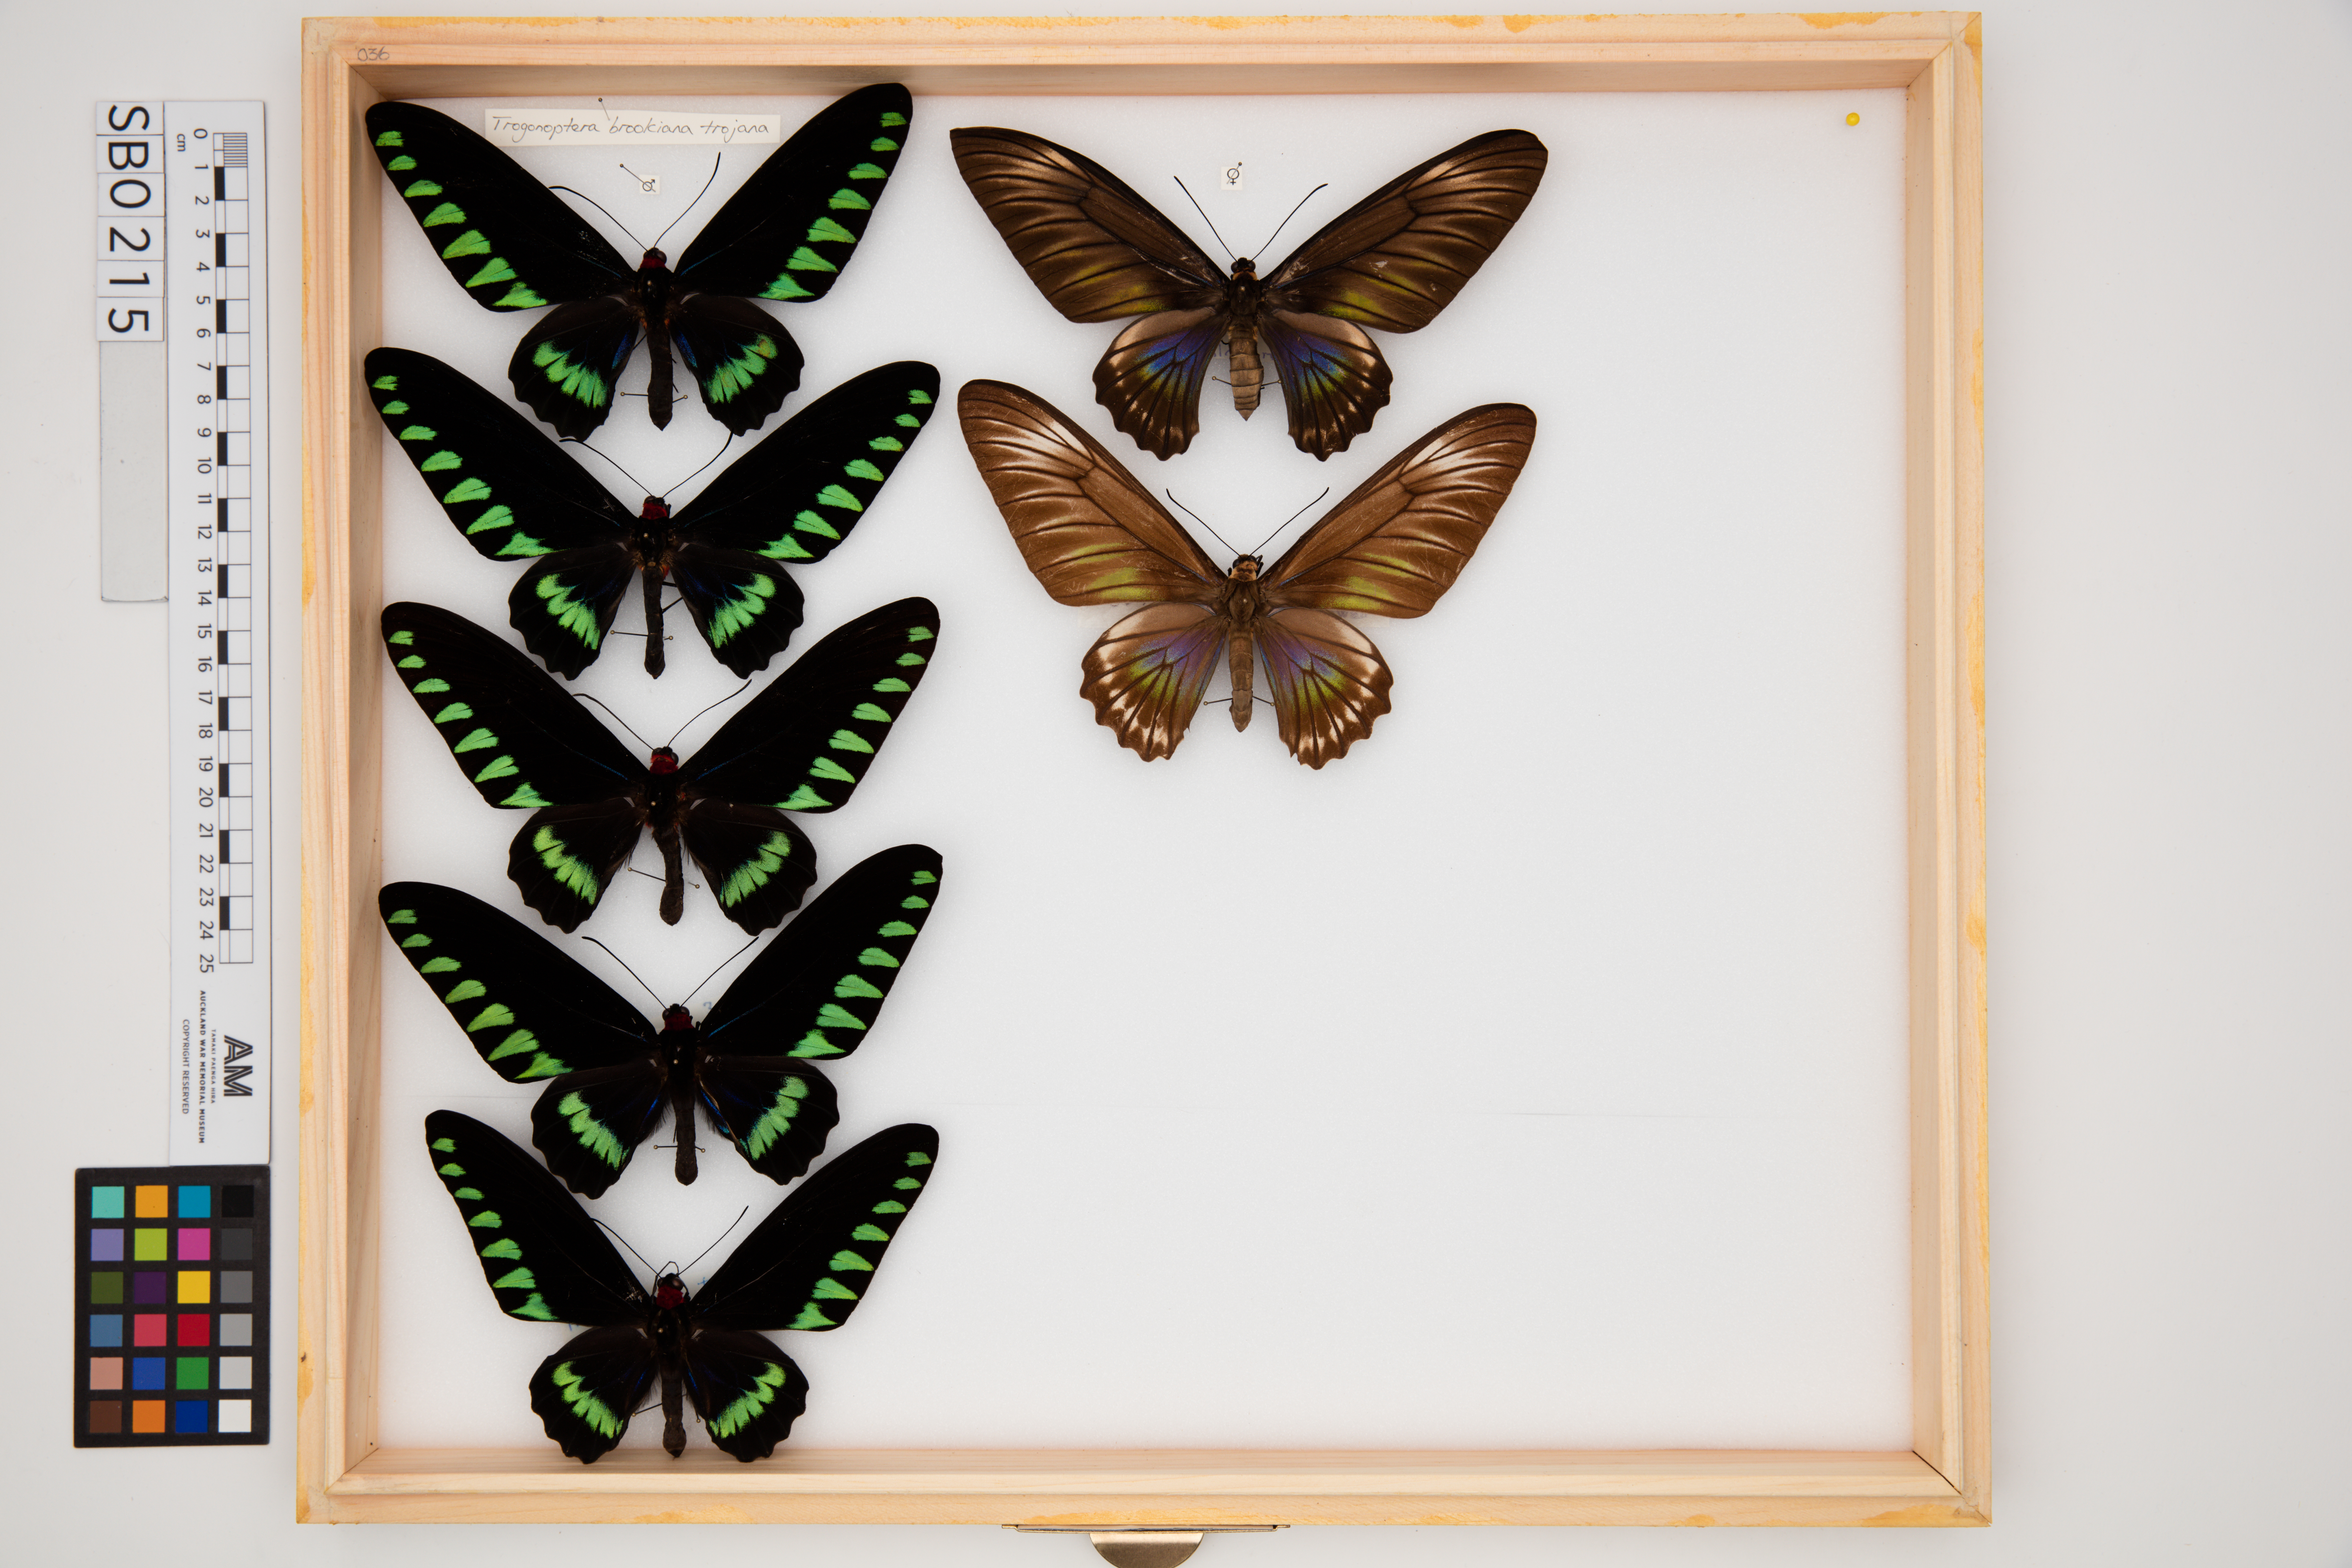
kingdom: Animalia
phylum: Arthropoda
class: Insecta
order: Lepidoptera
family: Papilionidae
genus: Trogonoptera
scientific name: Trogonoptera trojana
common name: Palawan birdwing
